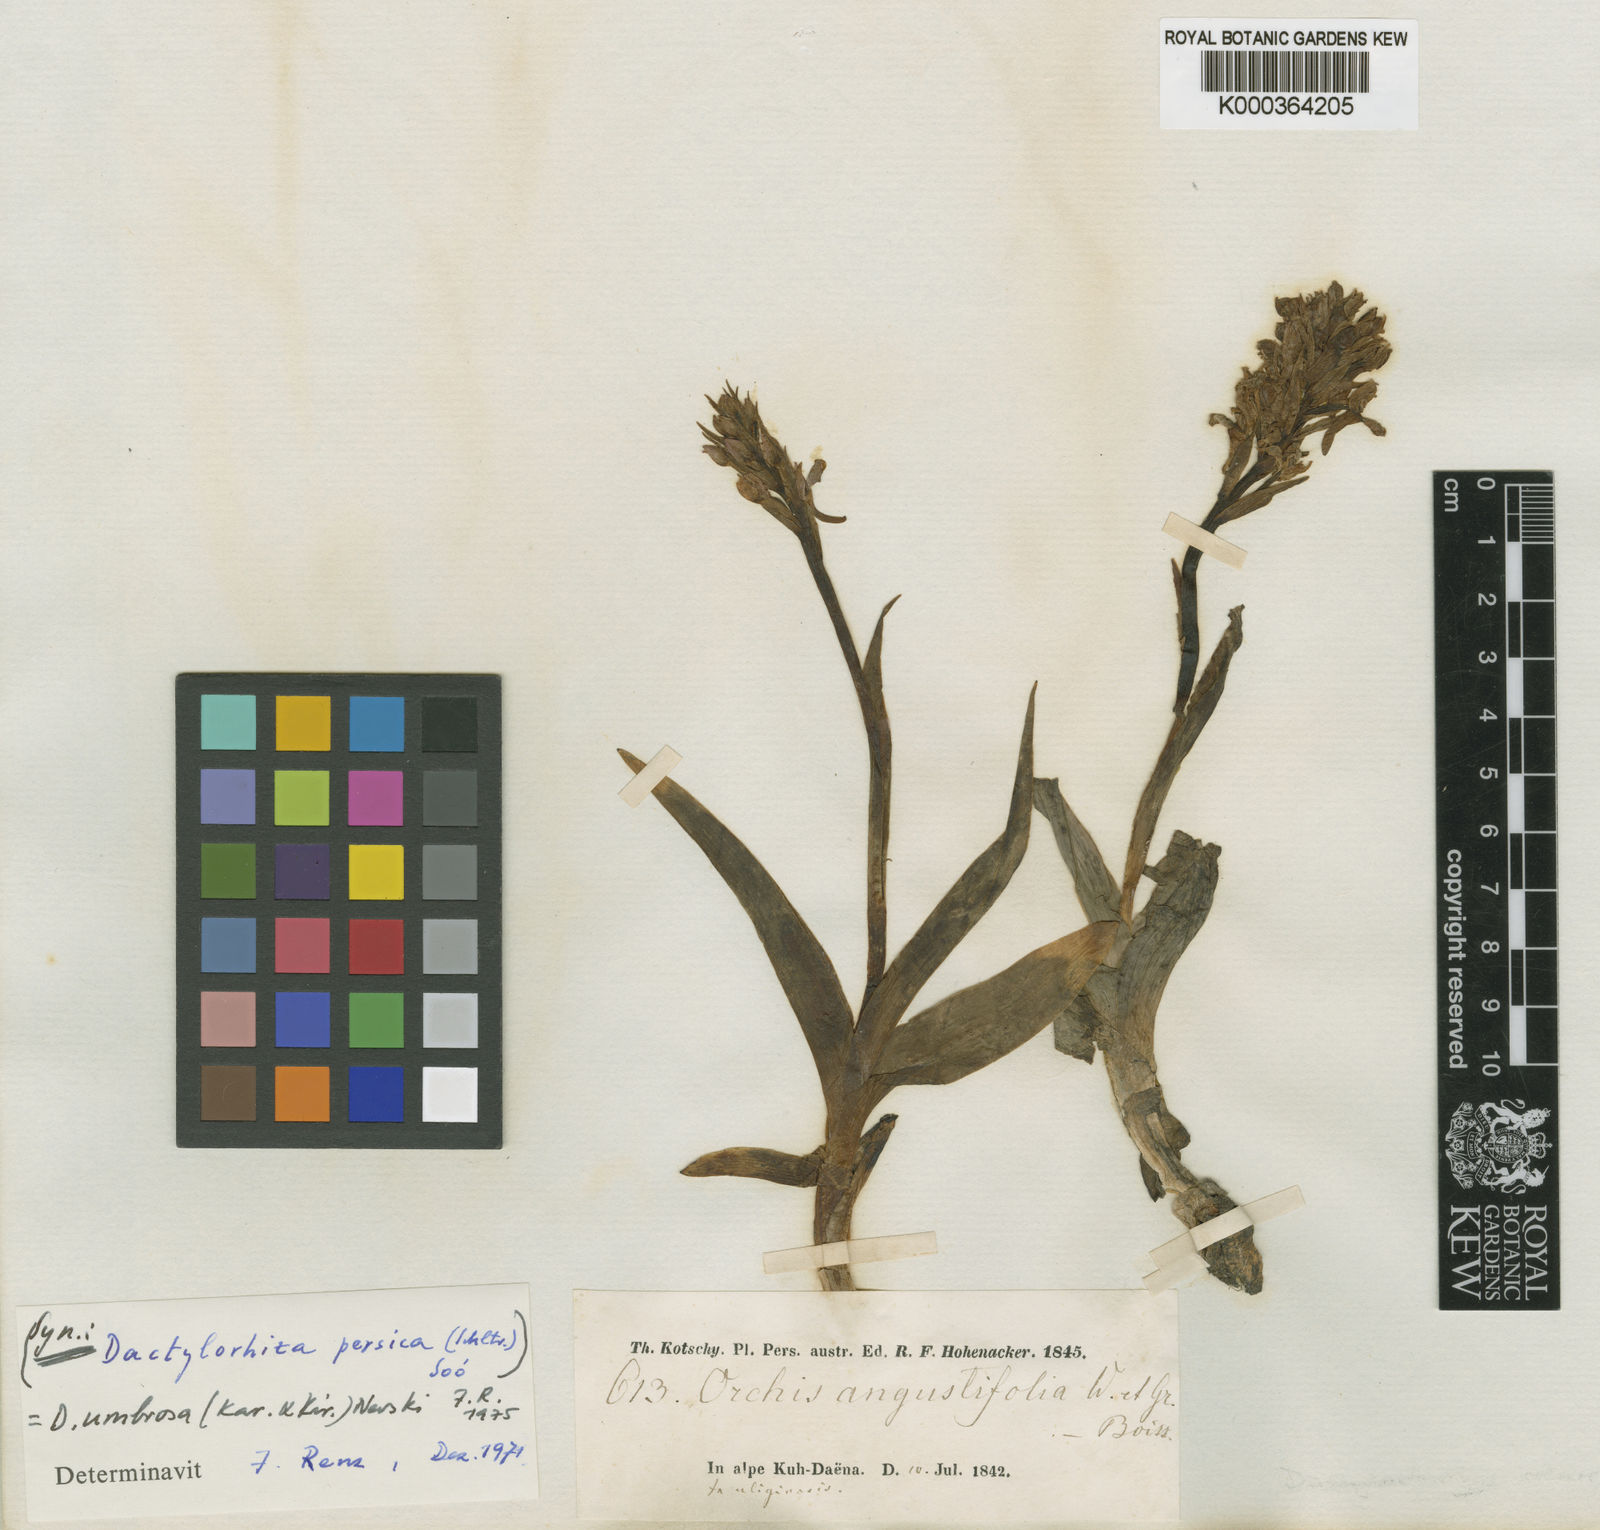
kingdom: Plantae
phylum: Tracheophyta
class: Liliopsida
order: Asparagales
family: Orchidaceae
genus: Dactylorhiza
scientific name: Dactylorhiza incarnata
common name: Early marsh-orchid
